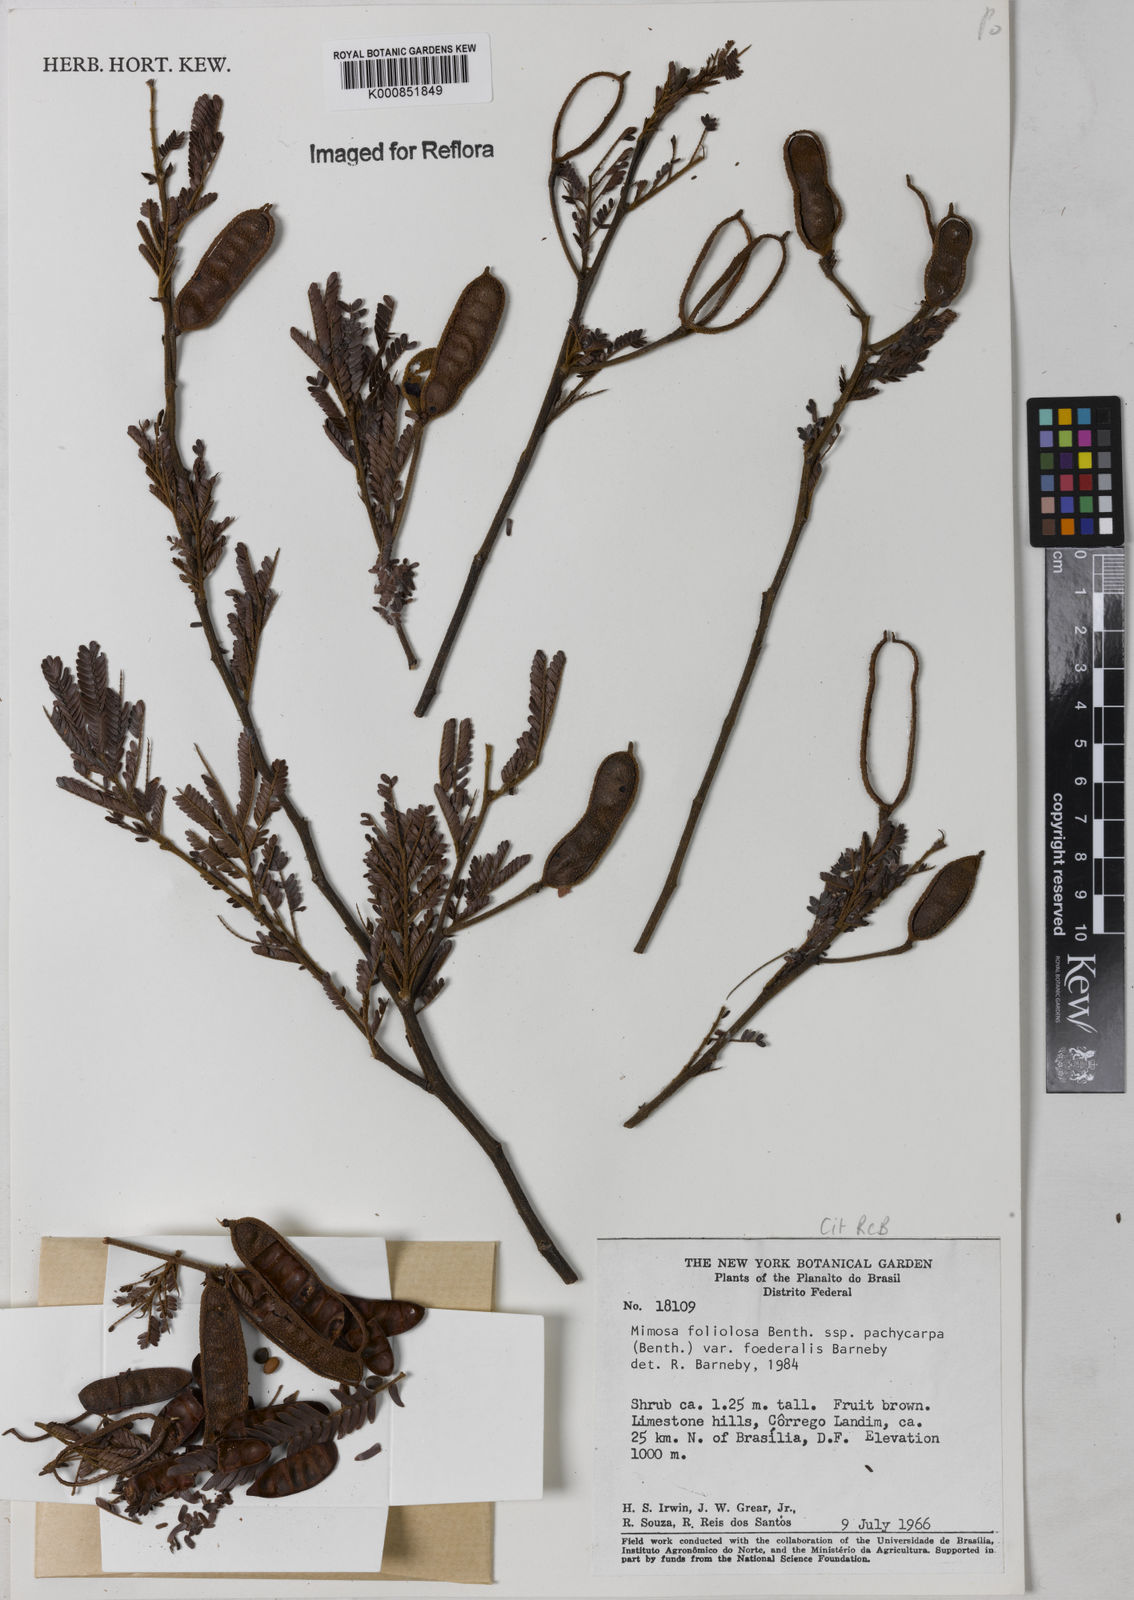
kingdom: Plantae
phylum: Tracheophyta
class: Magnoliopsida
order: Fabales
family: Fabaceae
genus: Mimosa
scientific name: Mimosa foliolosa
